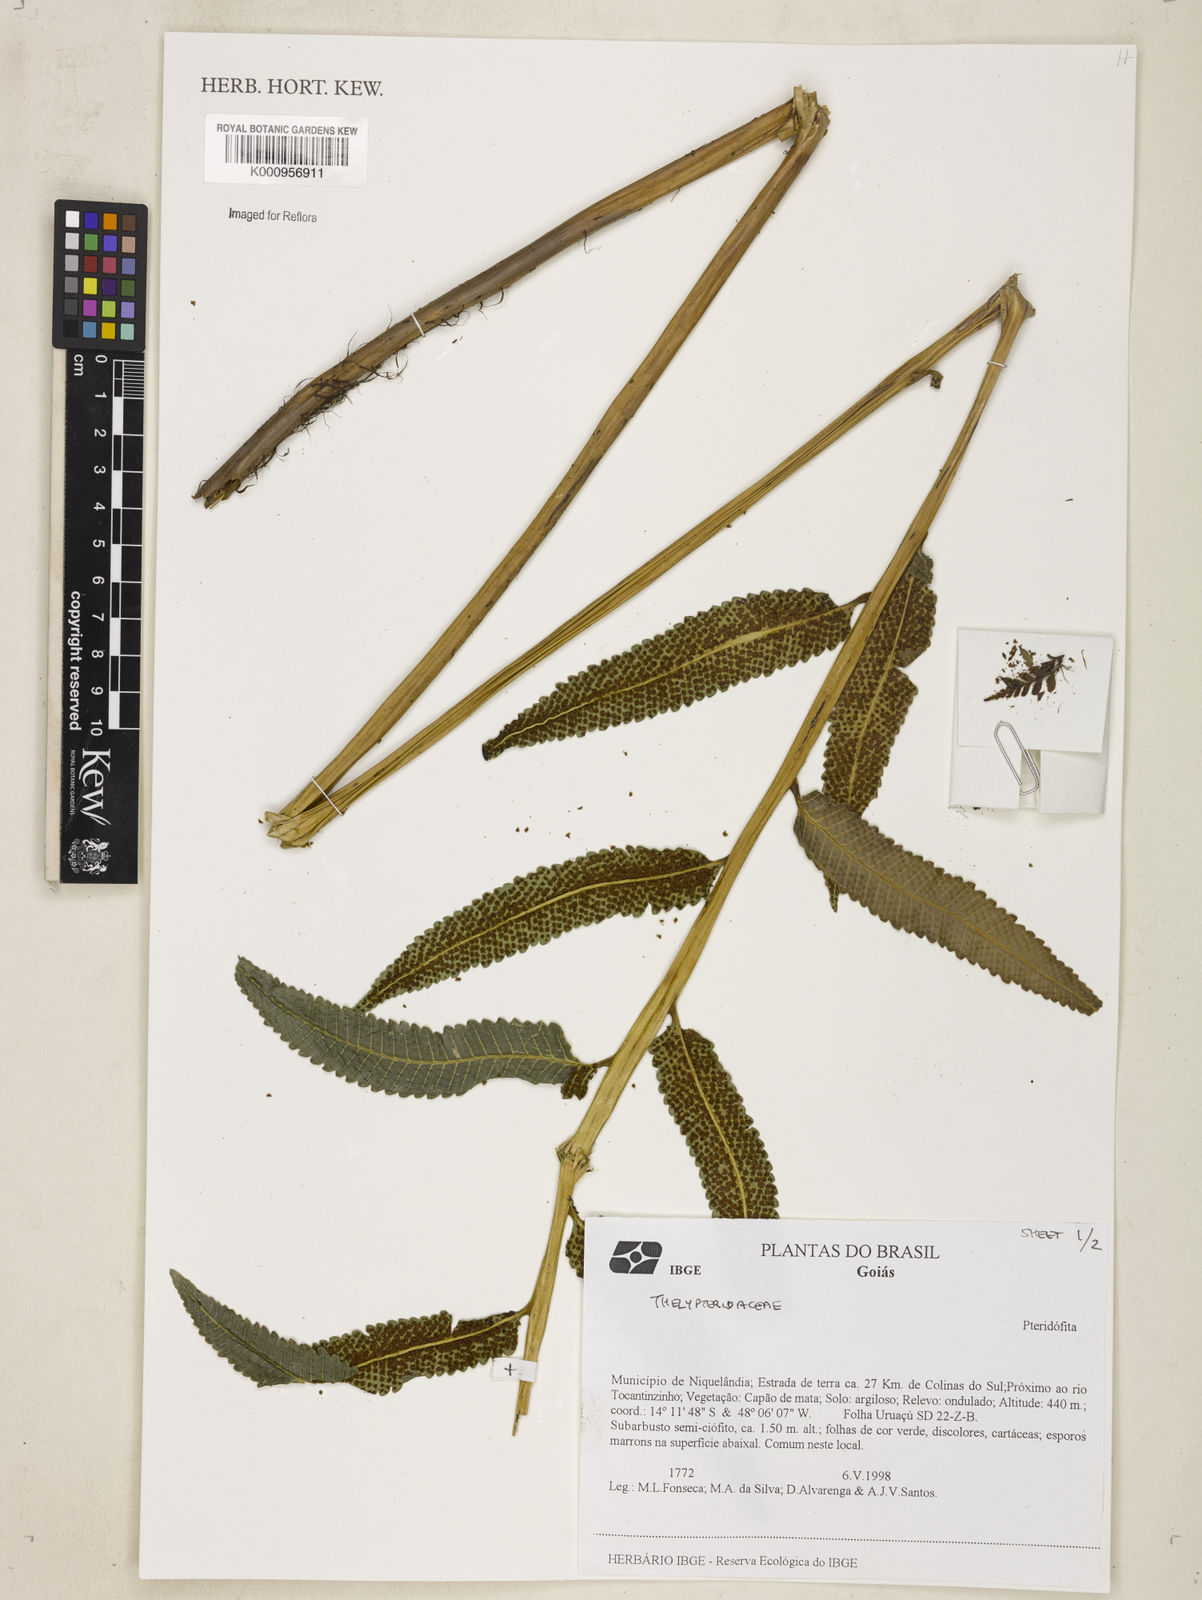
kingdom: Plantae
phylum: Tracheophyta
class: Polypodiopsida
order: Polypodiales
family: Thelypteridaceae
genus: Meniscium
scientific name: Meniscium
